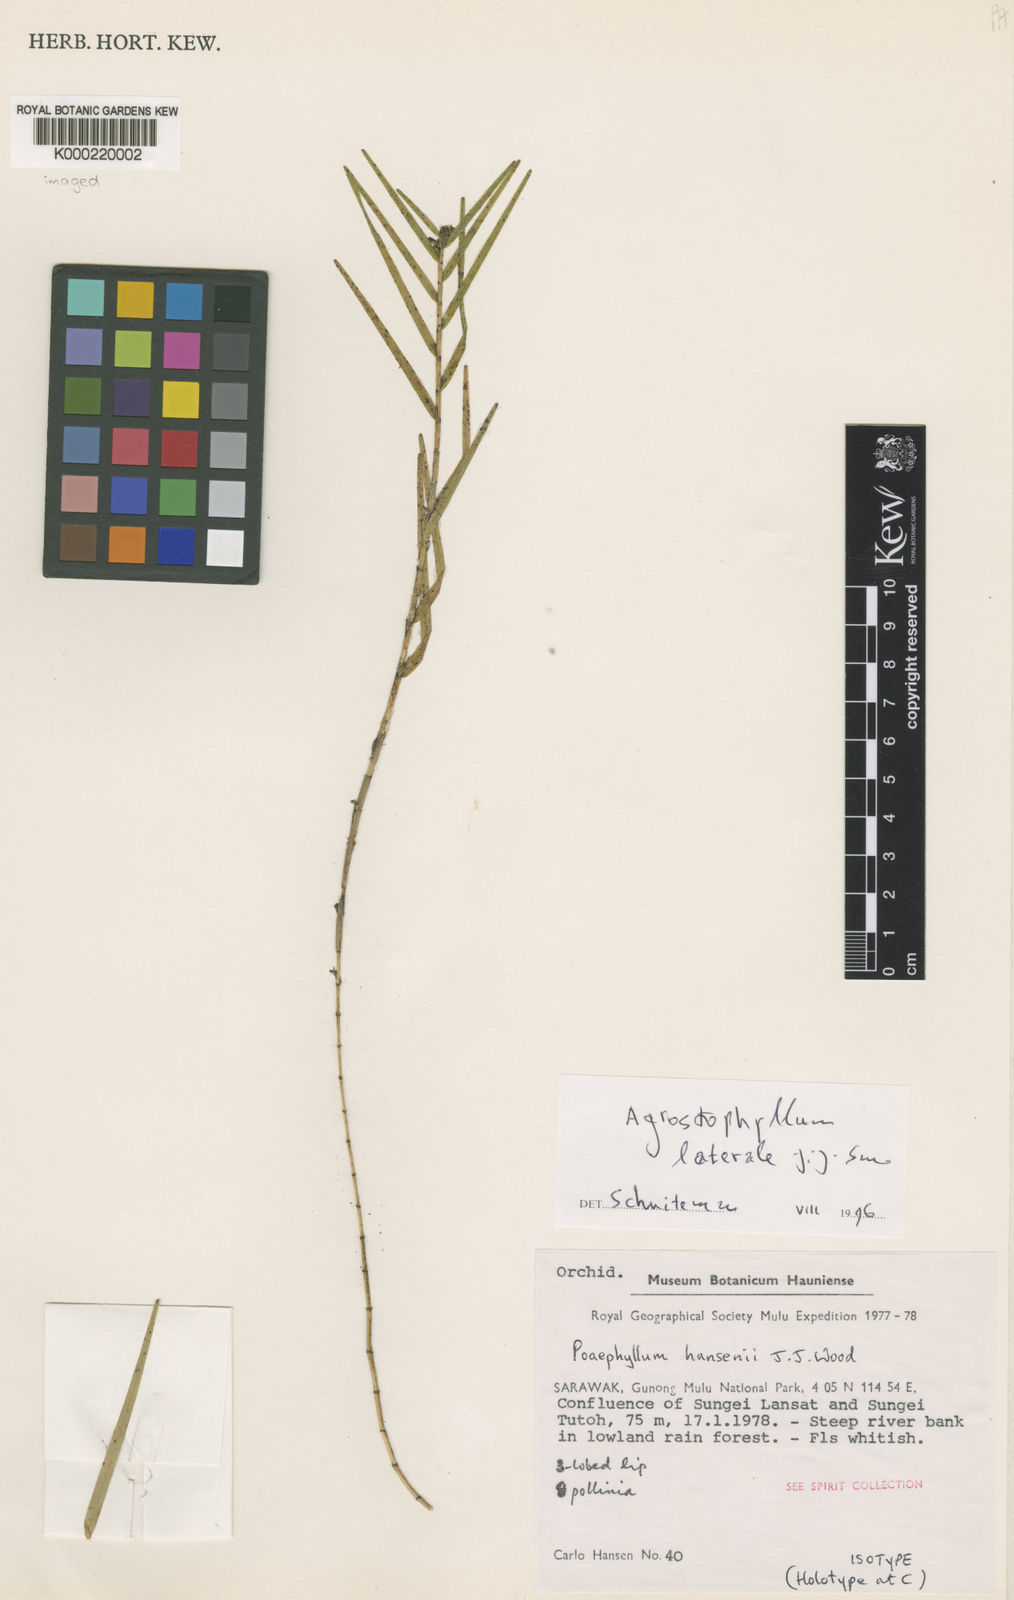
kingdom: Plantae
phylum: Tracheophyta
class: Liliopsida
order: Asparagales
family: Orchidaceae
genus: Agrostophyllum
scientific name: Agrostophyllum laterale
